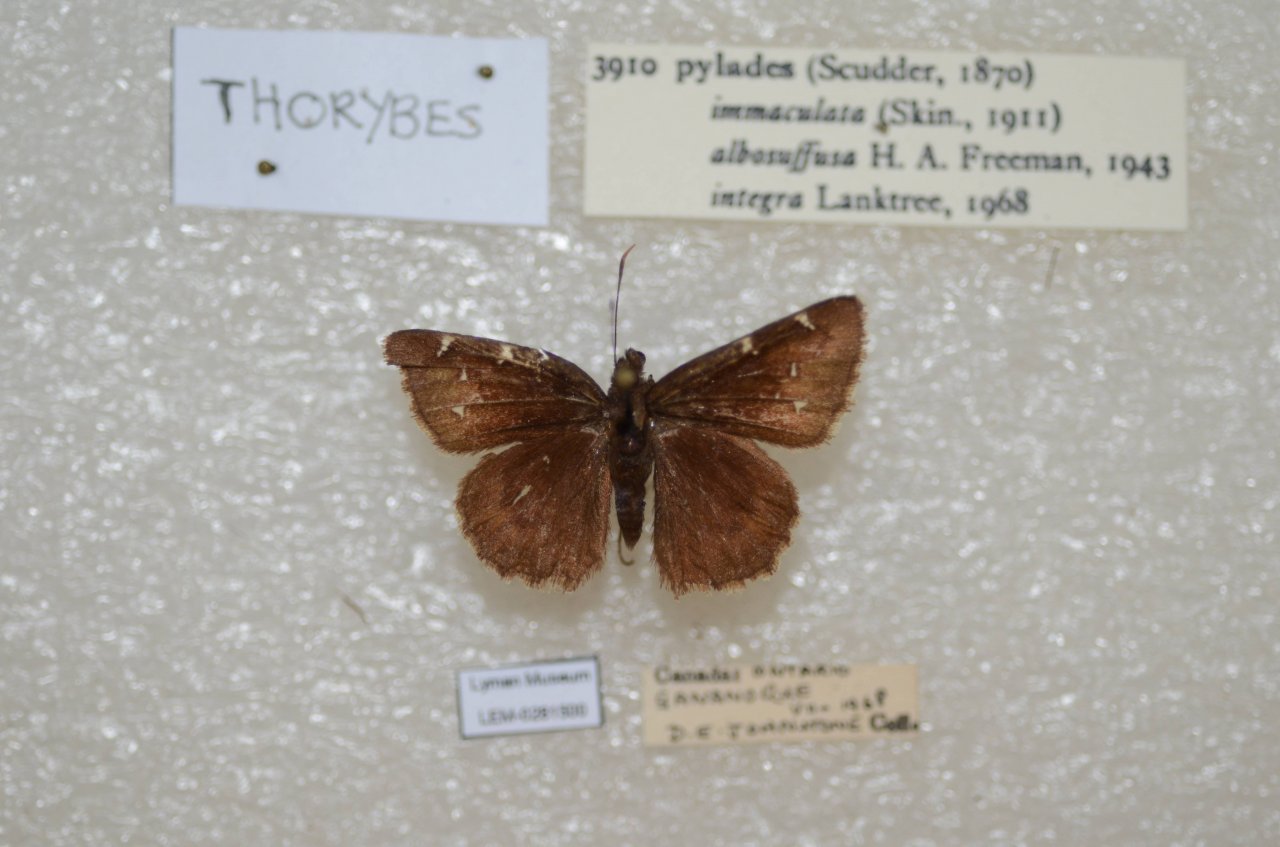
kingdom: Animalia
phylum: Arthropoda
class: Insecta
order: Lepidoptera
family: Hesperiidae
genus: Autochton
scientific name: Autochton
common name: Northern Cloudywing
